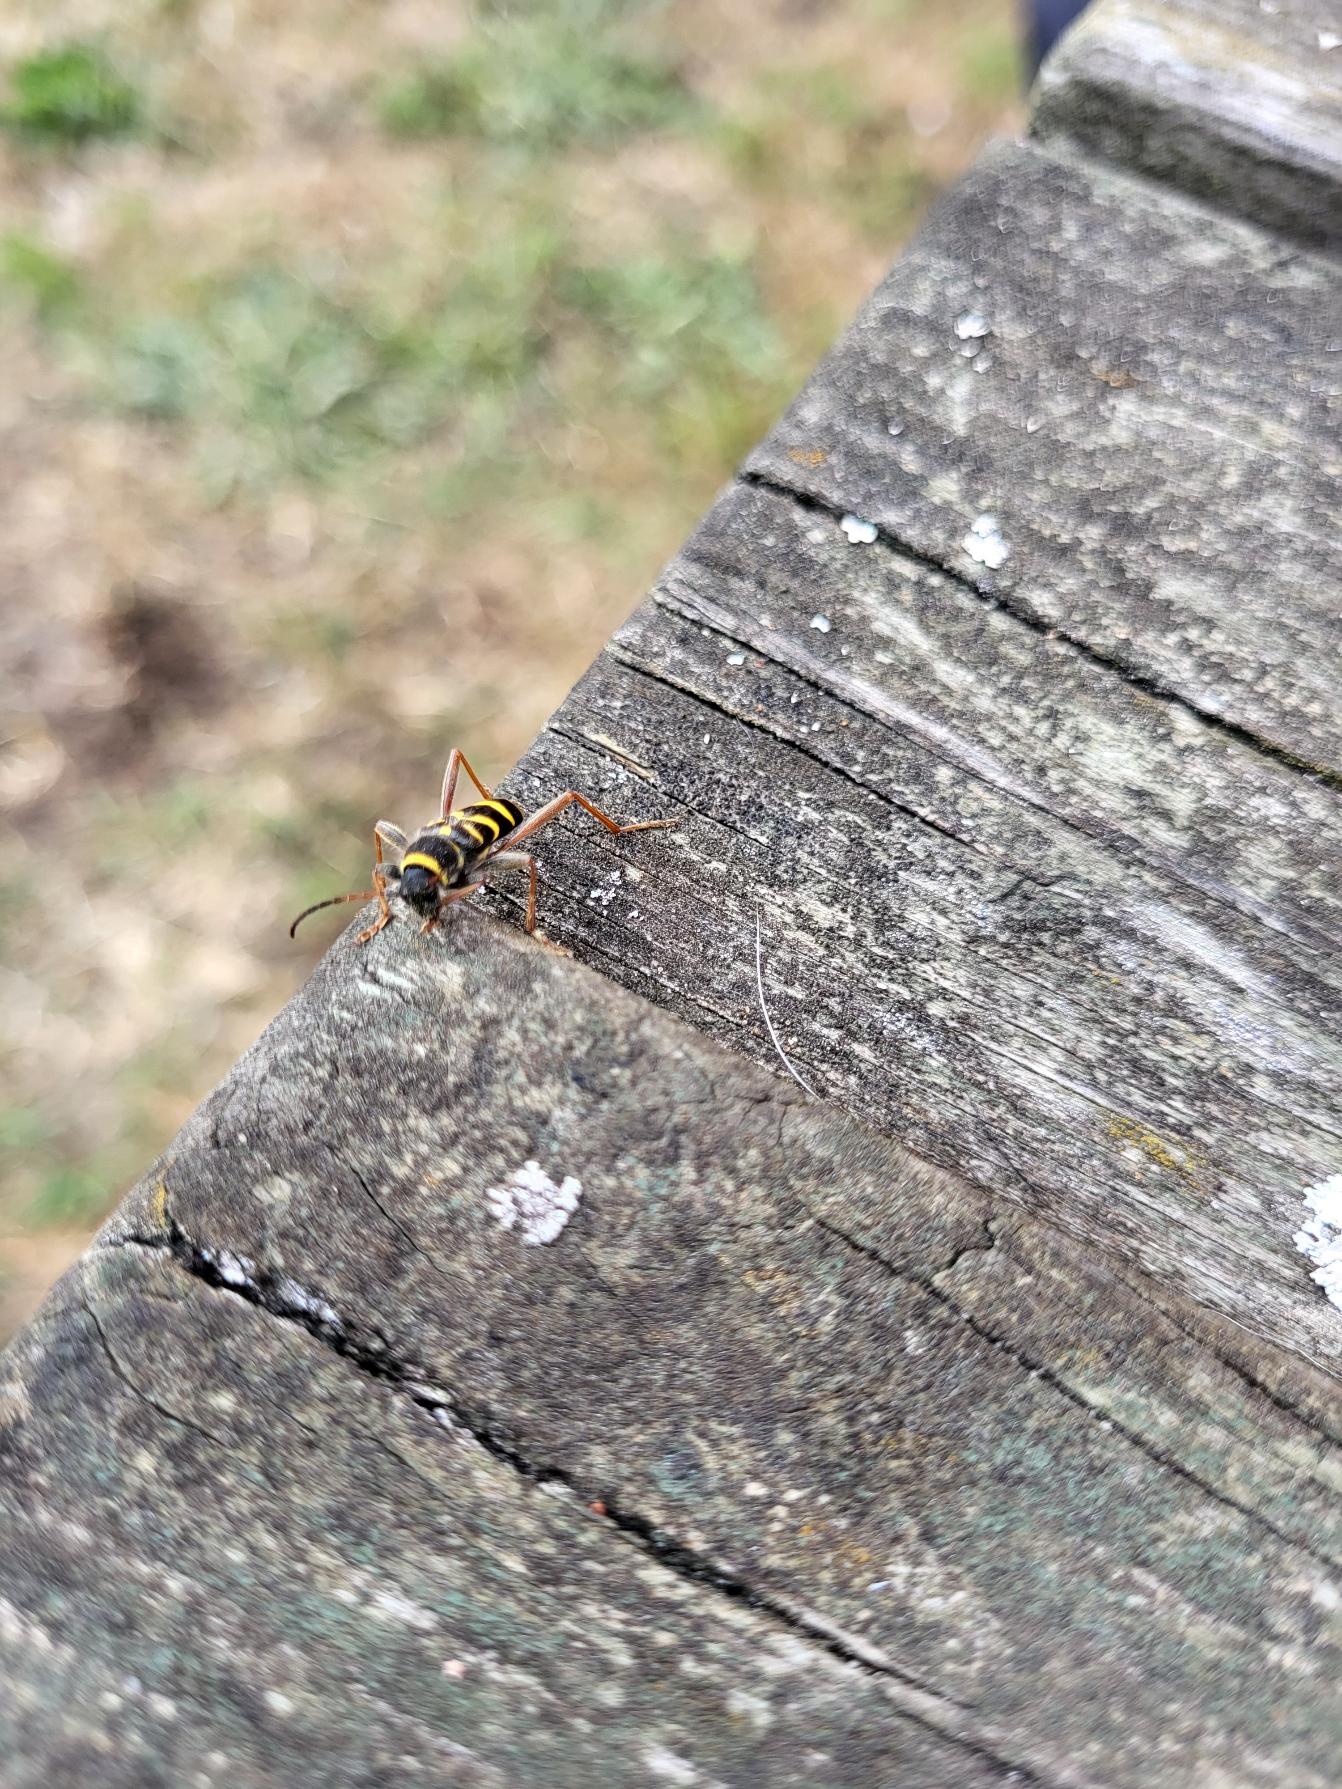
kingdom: Animalia
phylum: Arthropoda
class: Insecta
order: Coleoptera
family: Cerambycidae
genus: Clytus
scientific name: Clytus arietis
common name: Lille hvepsebuk
